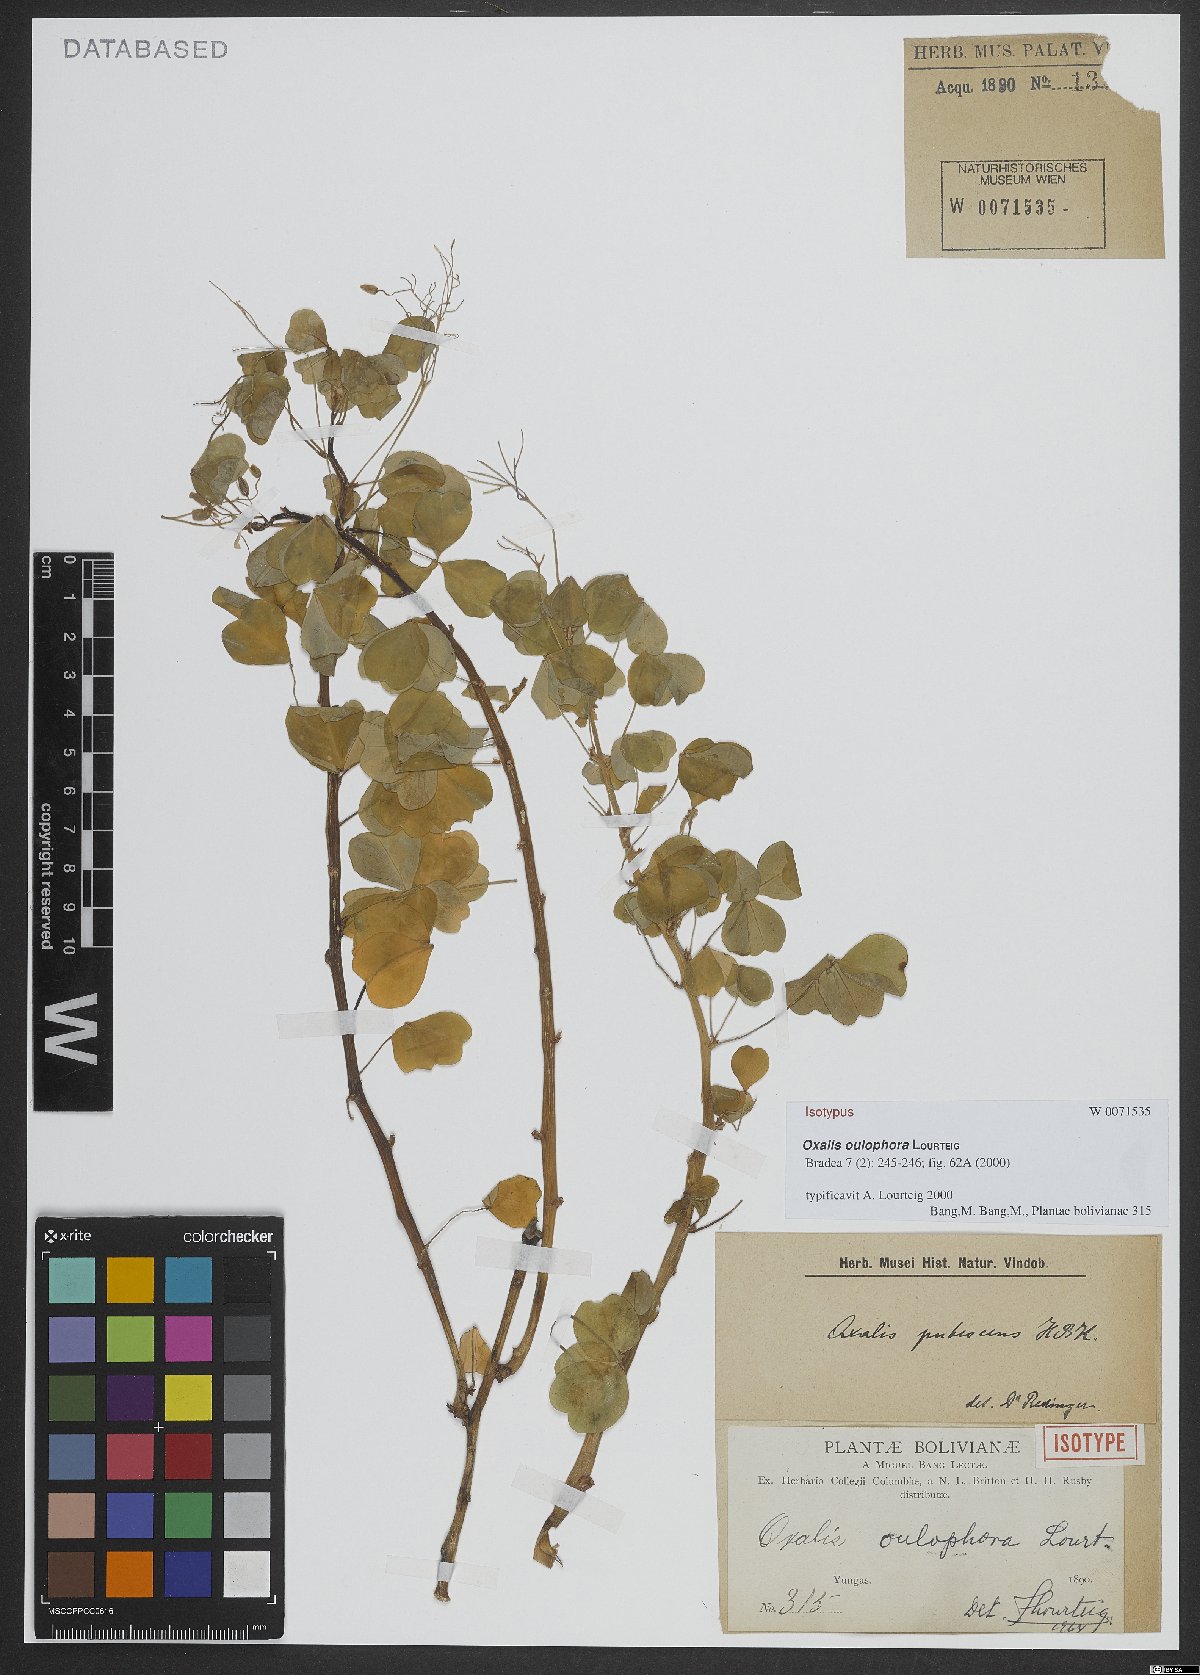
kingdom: Plantae
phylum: Tracheophyta
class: Magnoliopsida
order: Oxalidales
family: Oxalidaceae
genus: Oxalis
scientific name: Oxalis oulophora
